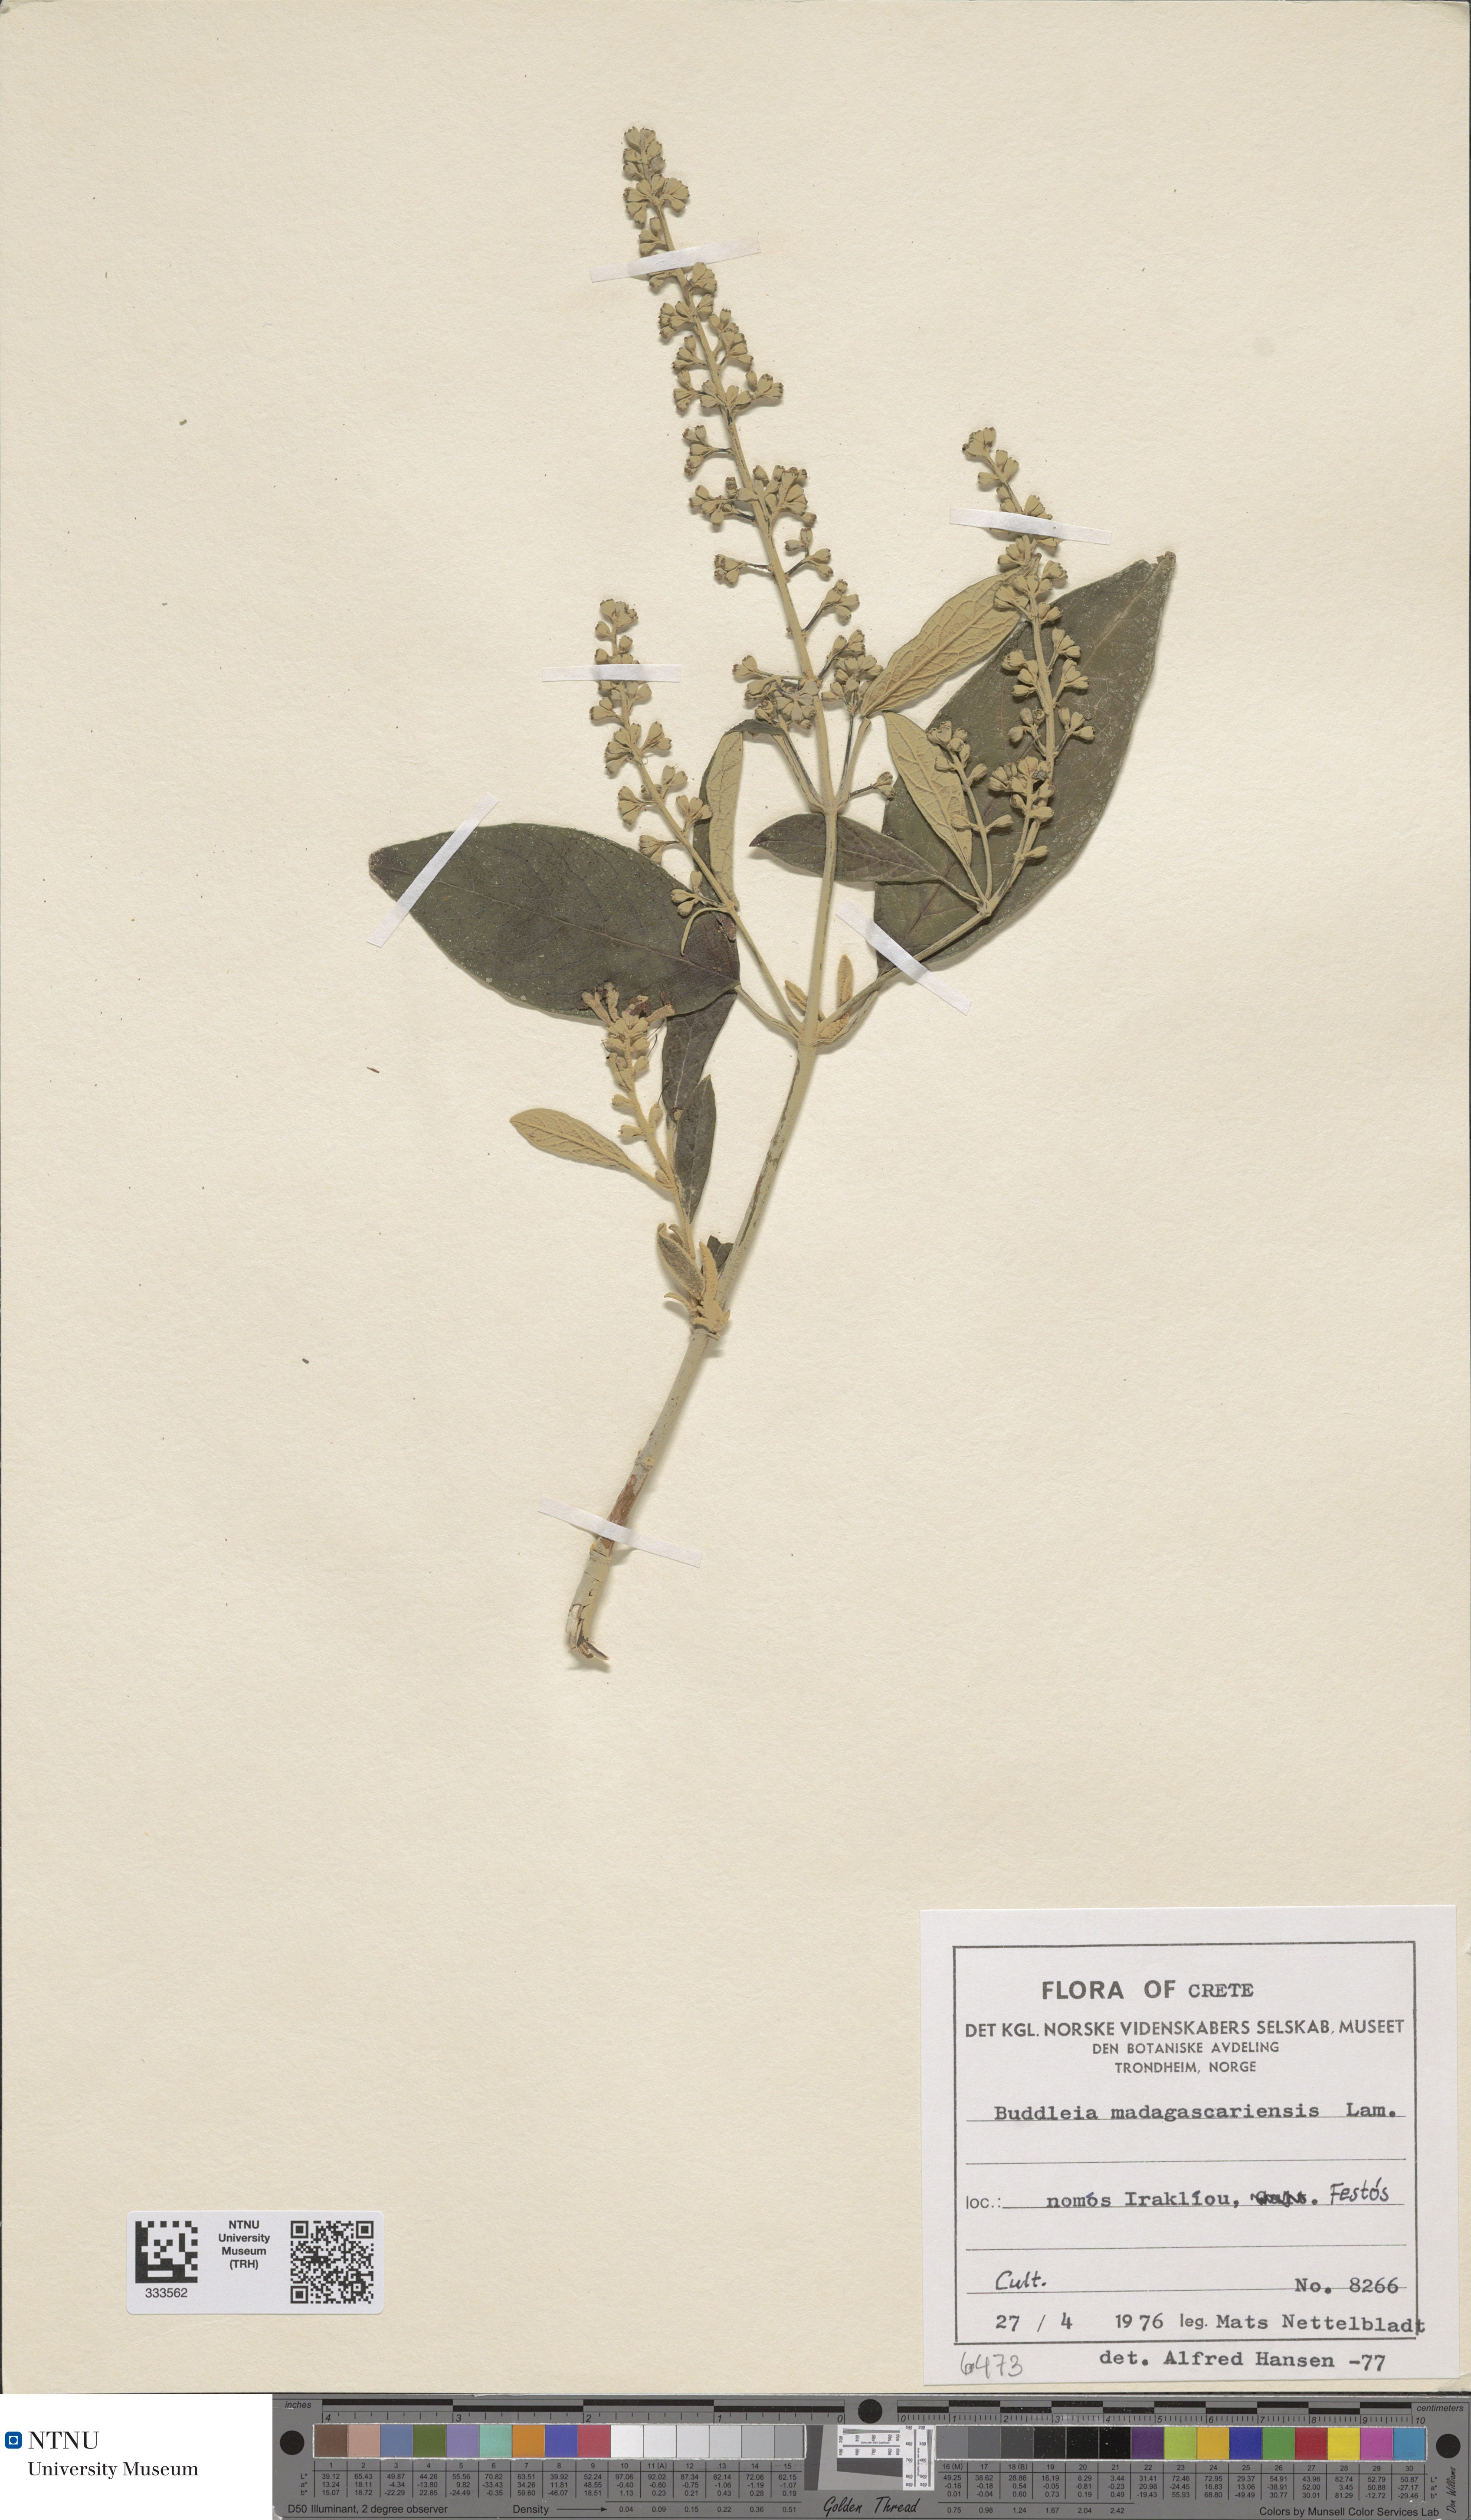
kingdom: Plantae
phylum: Tracheophyta
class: Magnoliopsida
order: Lamiales
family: Scrophulariaceae
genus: Buddleja
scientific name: Buddleja madagascariensis
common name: Smokebush
